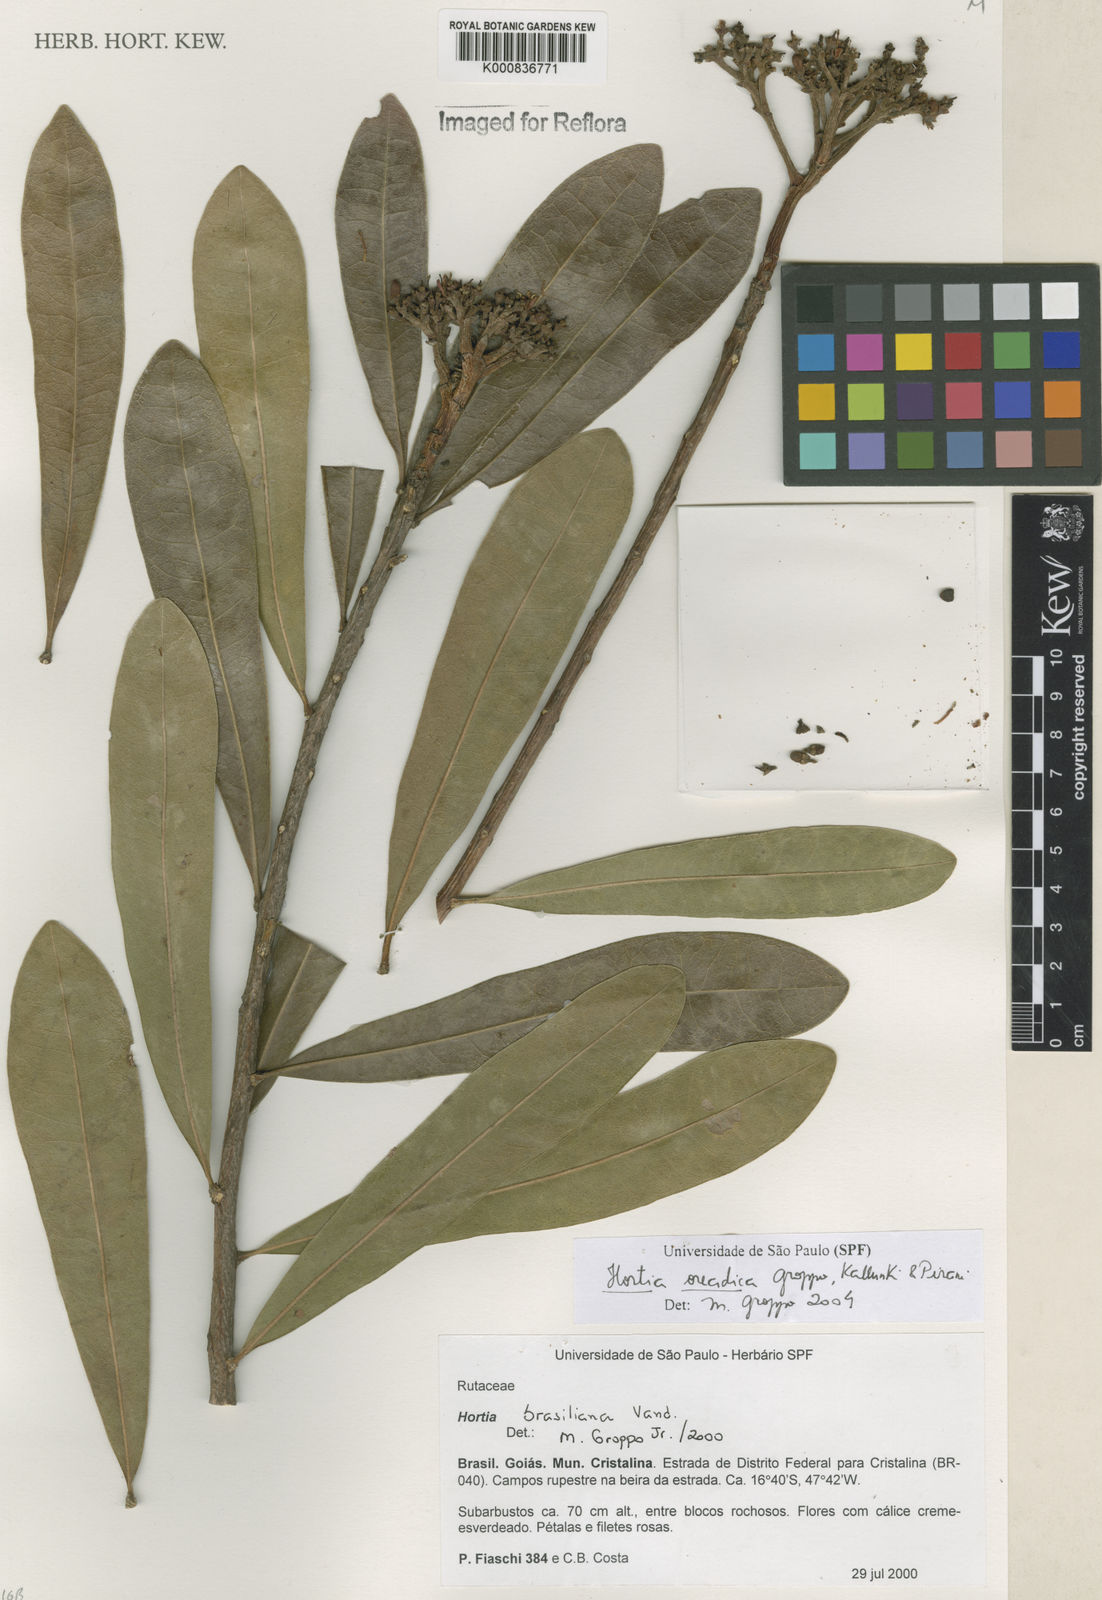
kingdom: Plantae
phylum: Tracheophyta
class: Magnoliopsida
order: Sapindales
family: Rutaceae
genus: Hortia
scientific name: Hortia brasiliana
